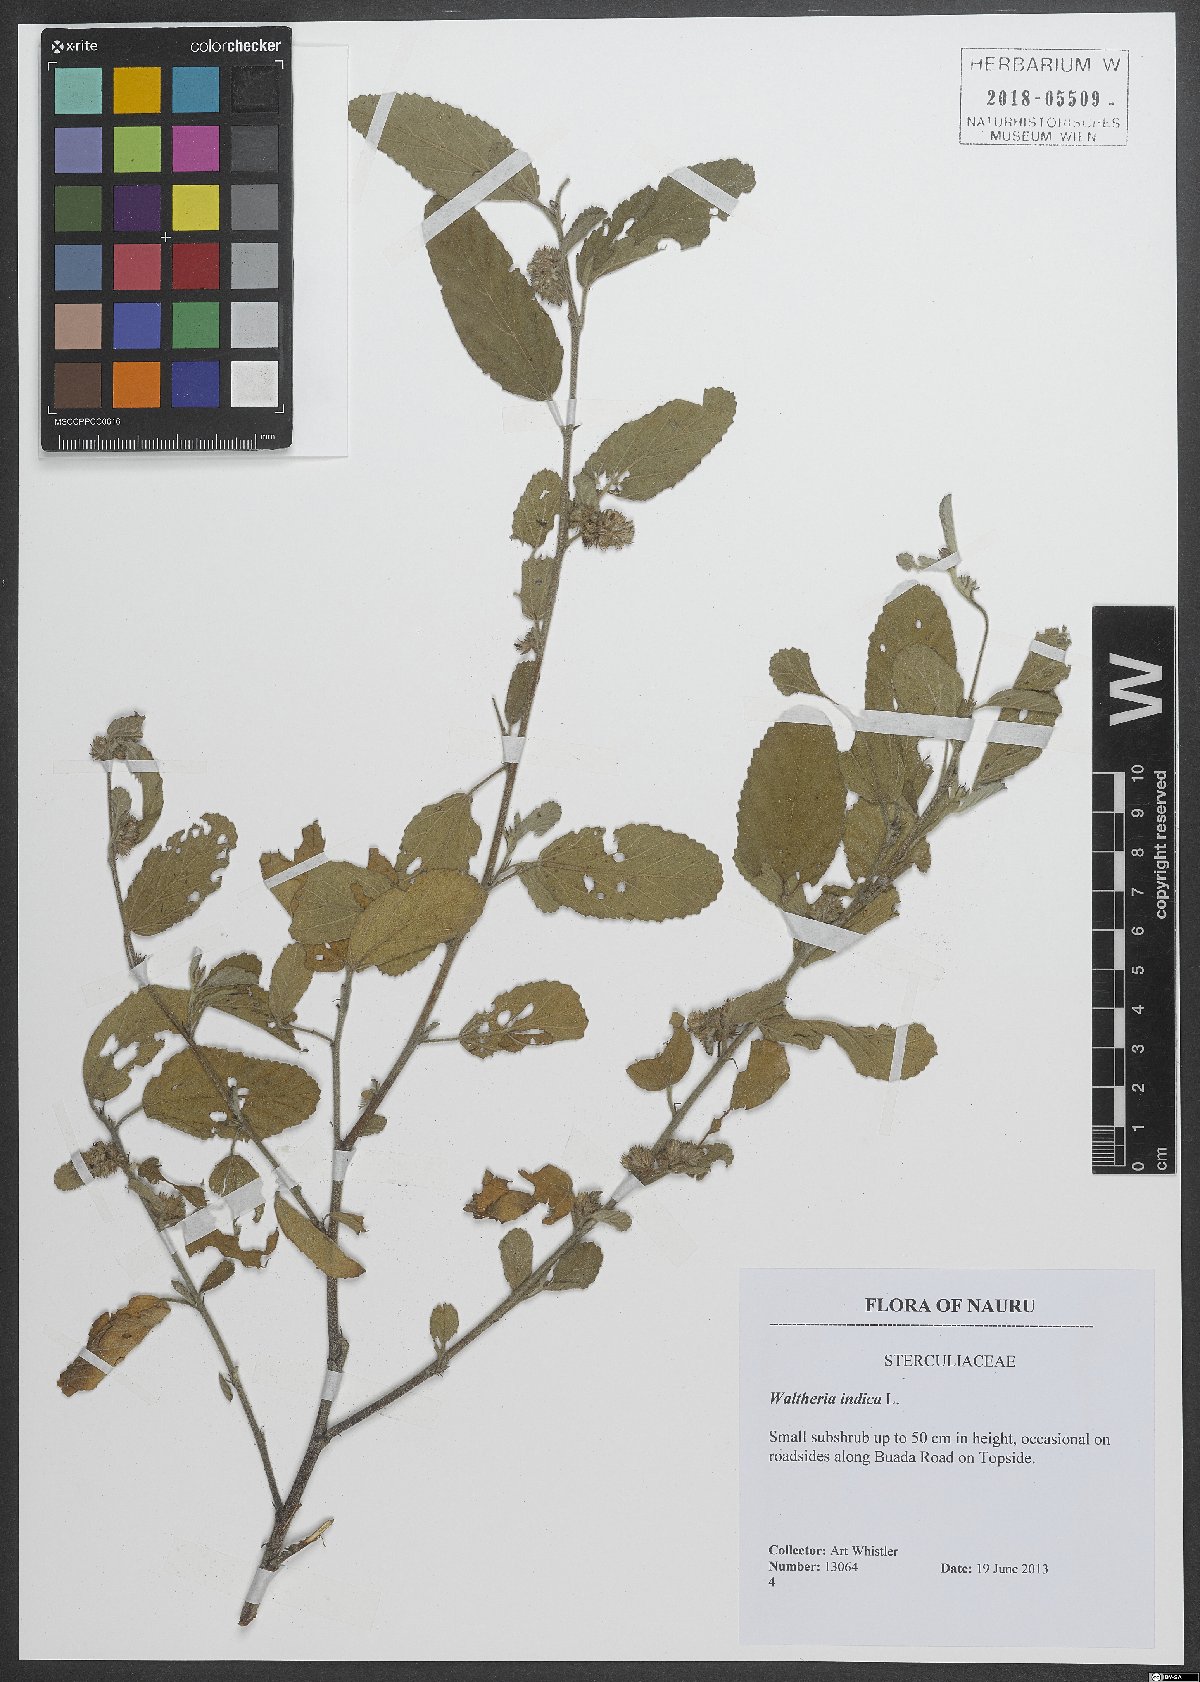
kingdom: Plantae
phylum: Tracheophyta
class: Magnoliopsida
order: Malvales
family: Malvaceae
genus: Waltheria
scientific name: Waltheria indica
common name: Leather-coat
